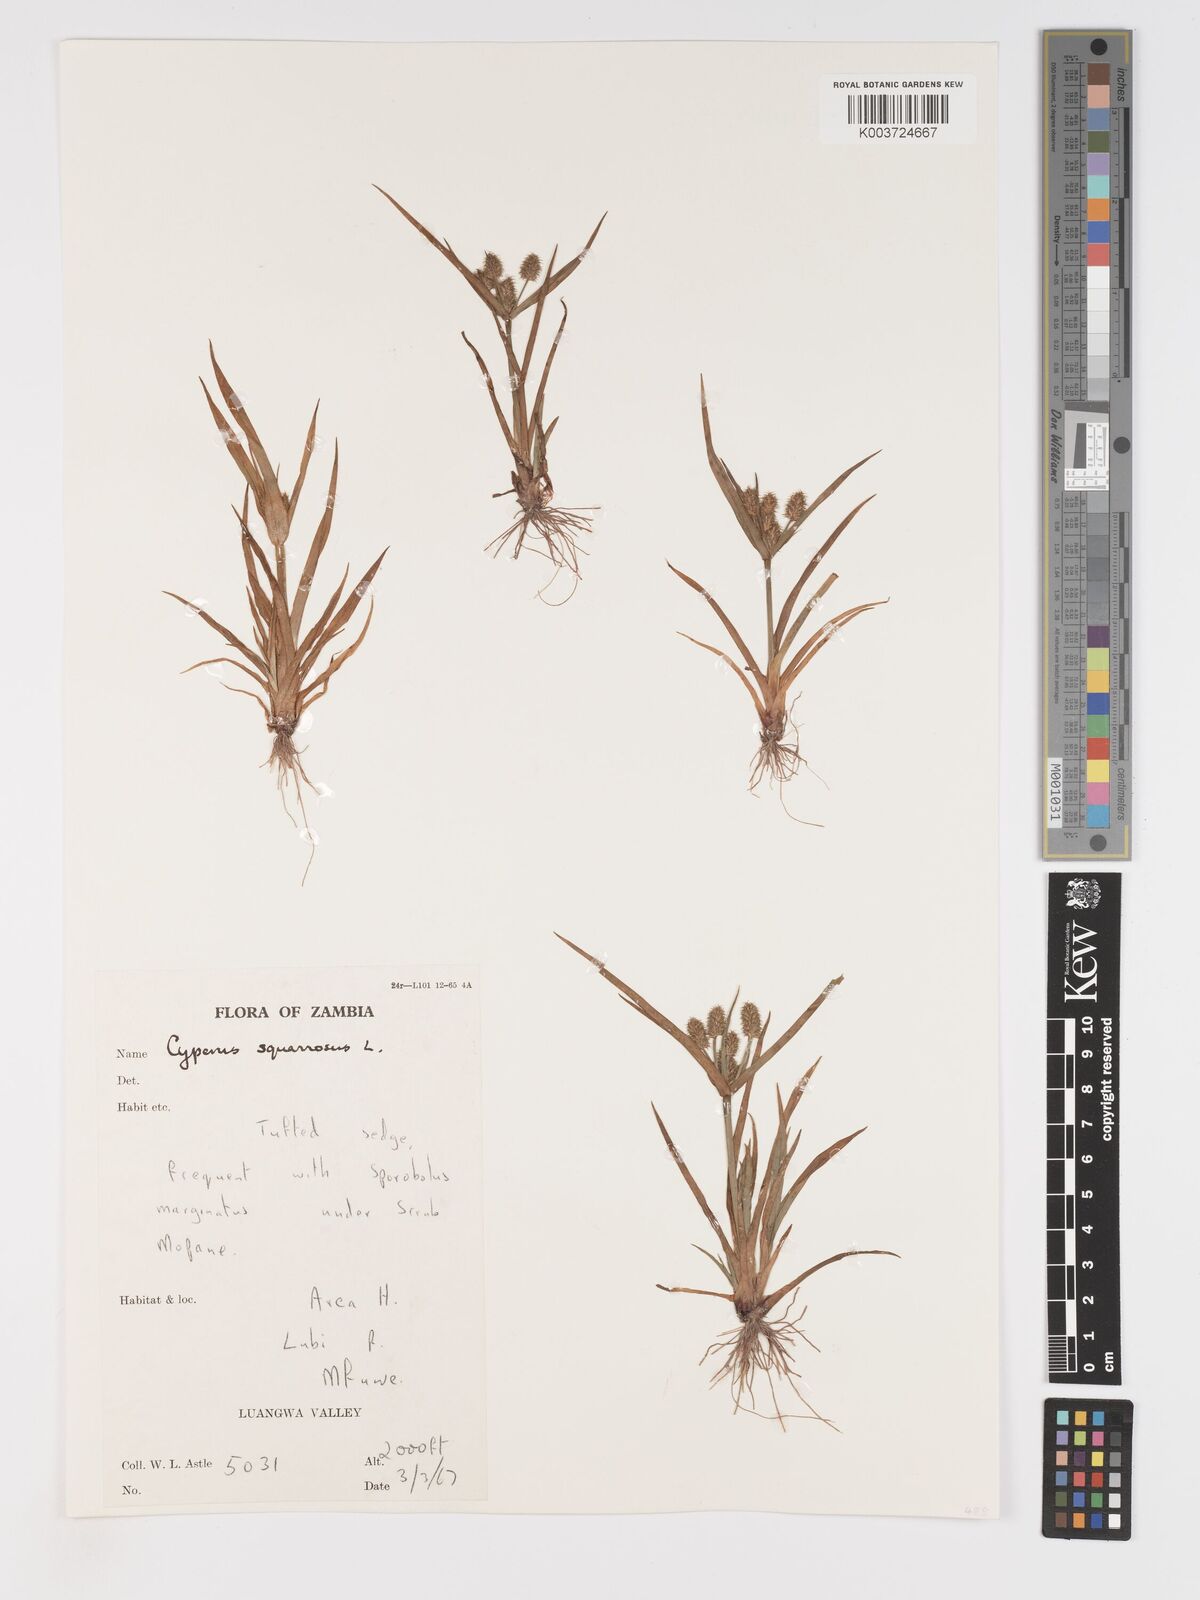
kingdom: Plantae
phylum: Tracheophyta
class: Liliopsida
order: Poales
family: Cyperaceae
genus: Cyperus
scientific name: Cyperus squarrosus
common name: Awned cyperus
